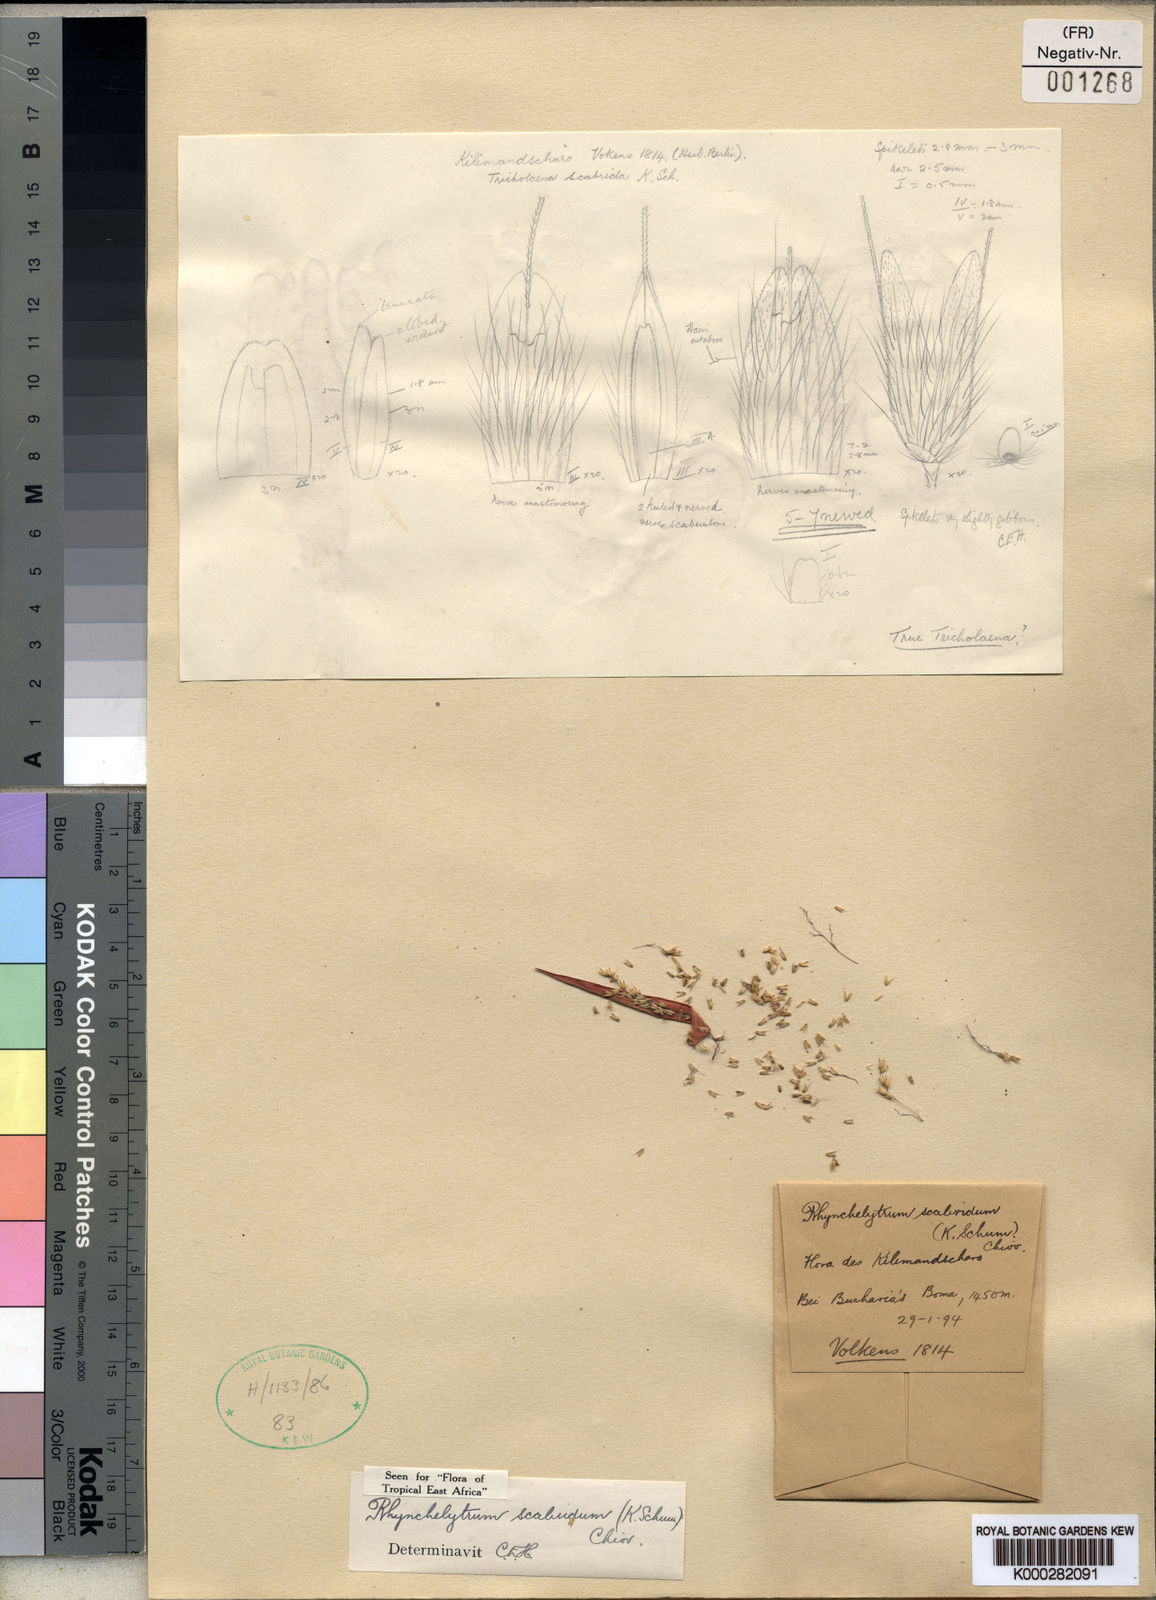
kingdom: Plantae
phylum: Tracheophyta
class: Liliopsida
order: Poales
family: Poaceae
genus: Melinis
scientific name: Melinis scabrida
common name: Millet grass
